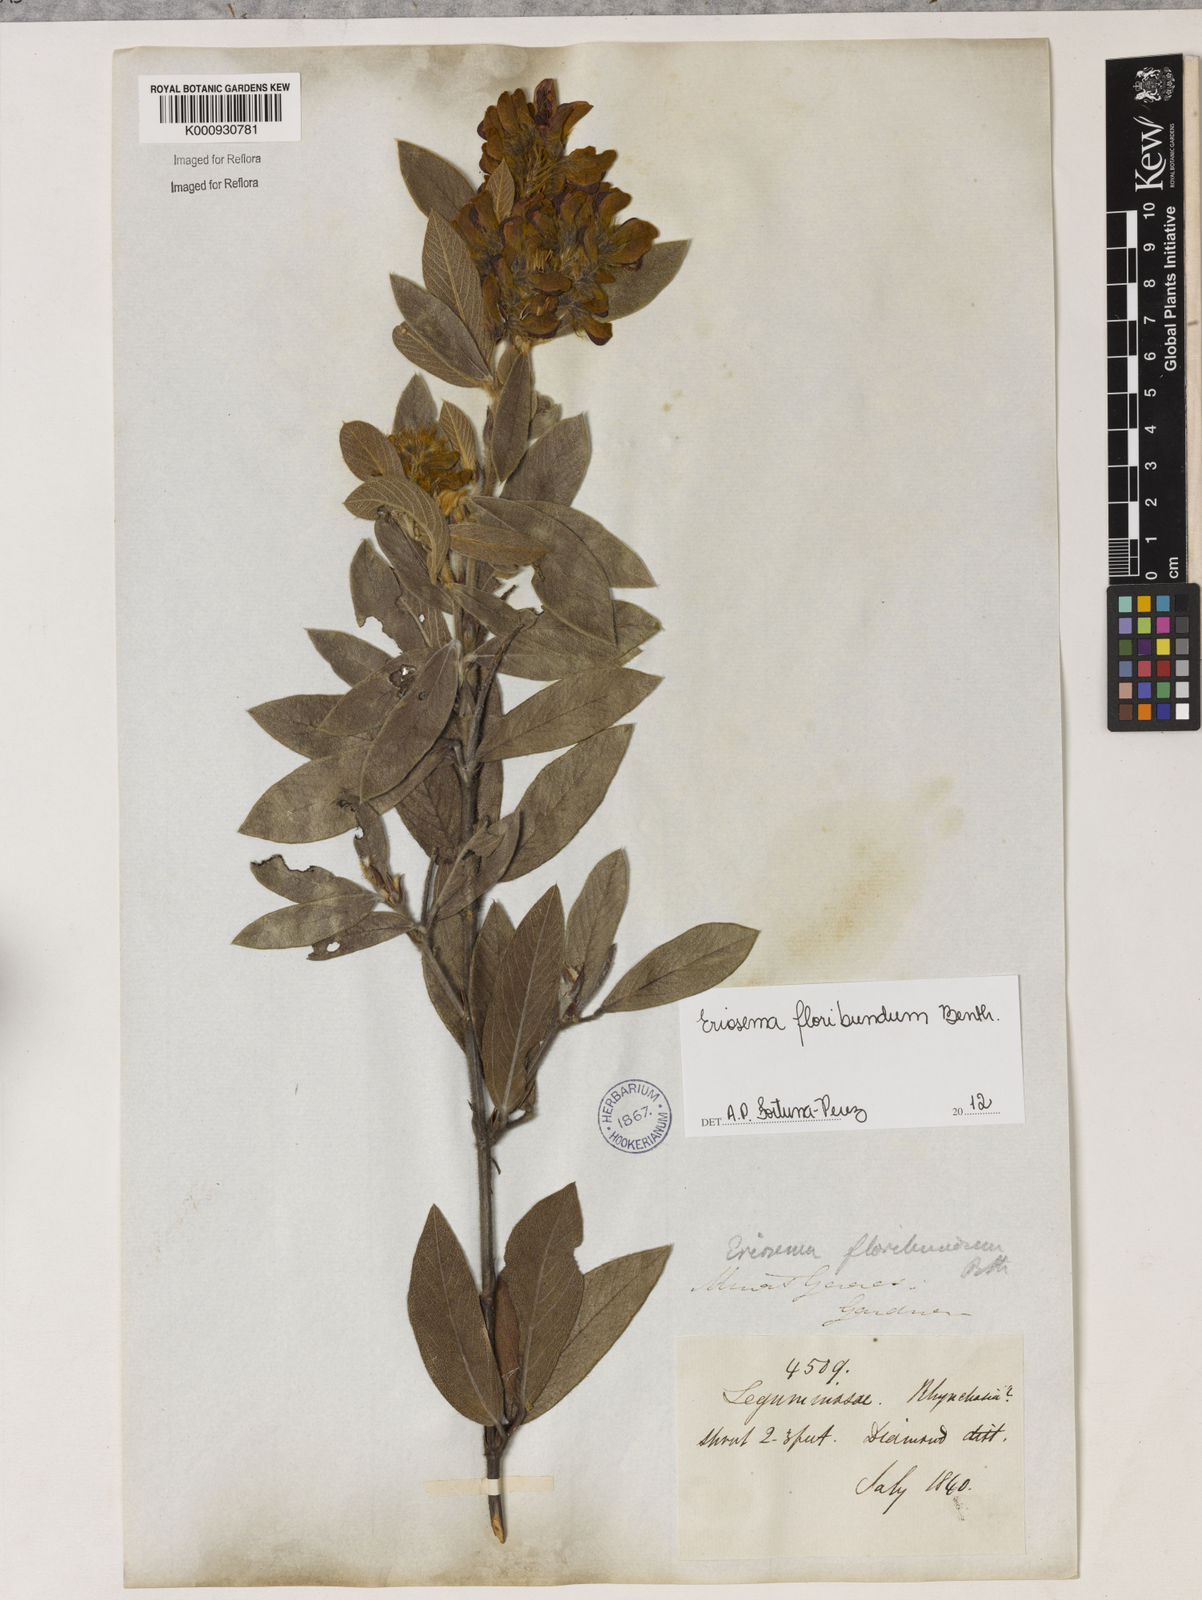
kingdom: Plantae
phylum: Tracheophyta
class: Magnoliopsida
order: Fabales
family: Fabaceae
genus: Eriosema
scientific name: Eriosema glaziovii
